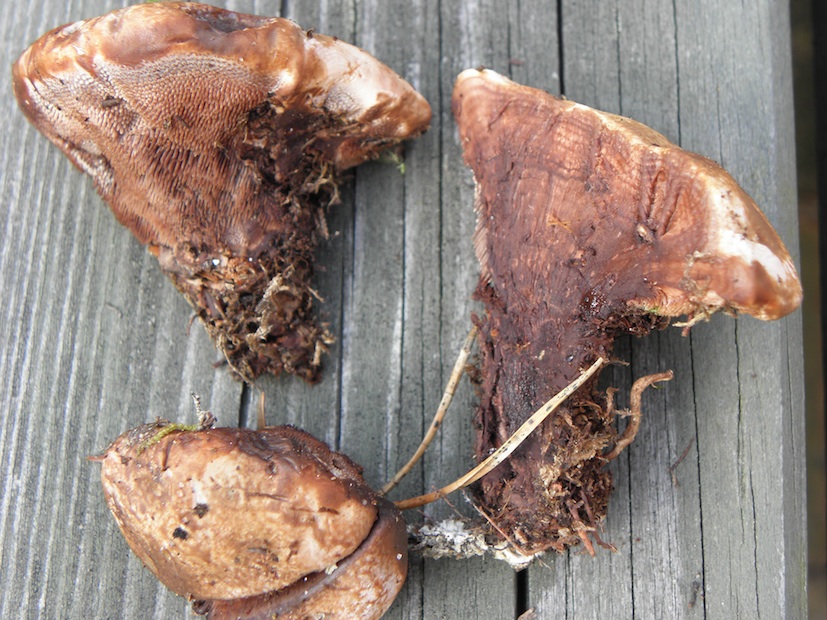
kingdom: Fungi
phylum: Basidiomycota
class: Agaricomycetes
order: Thelephorales
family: Bankeraceae
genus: Hydnellum
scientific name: Hydnellum ferrugineum
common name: rust-korkpigsvamp
